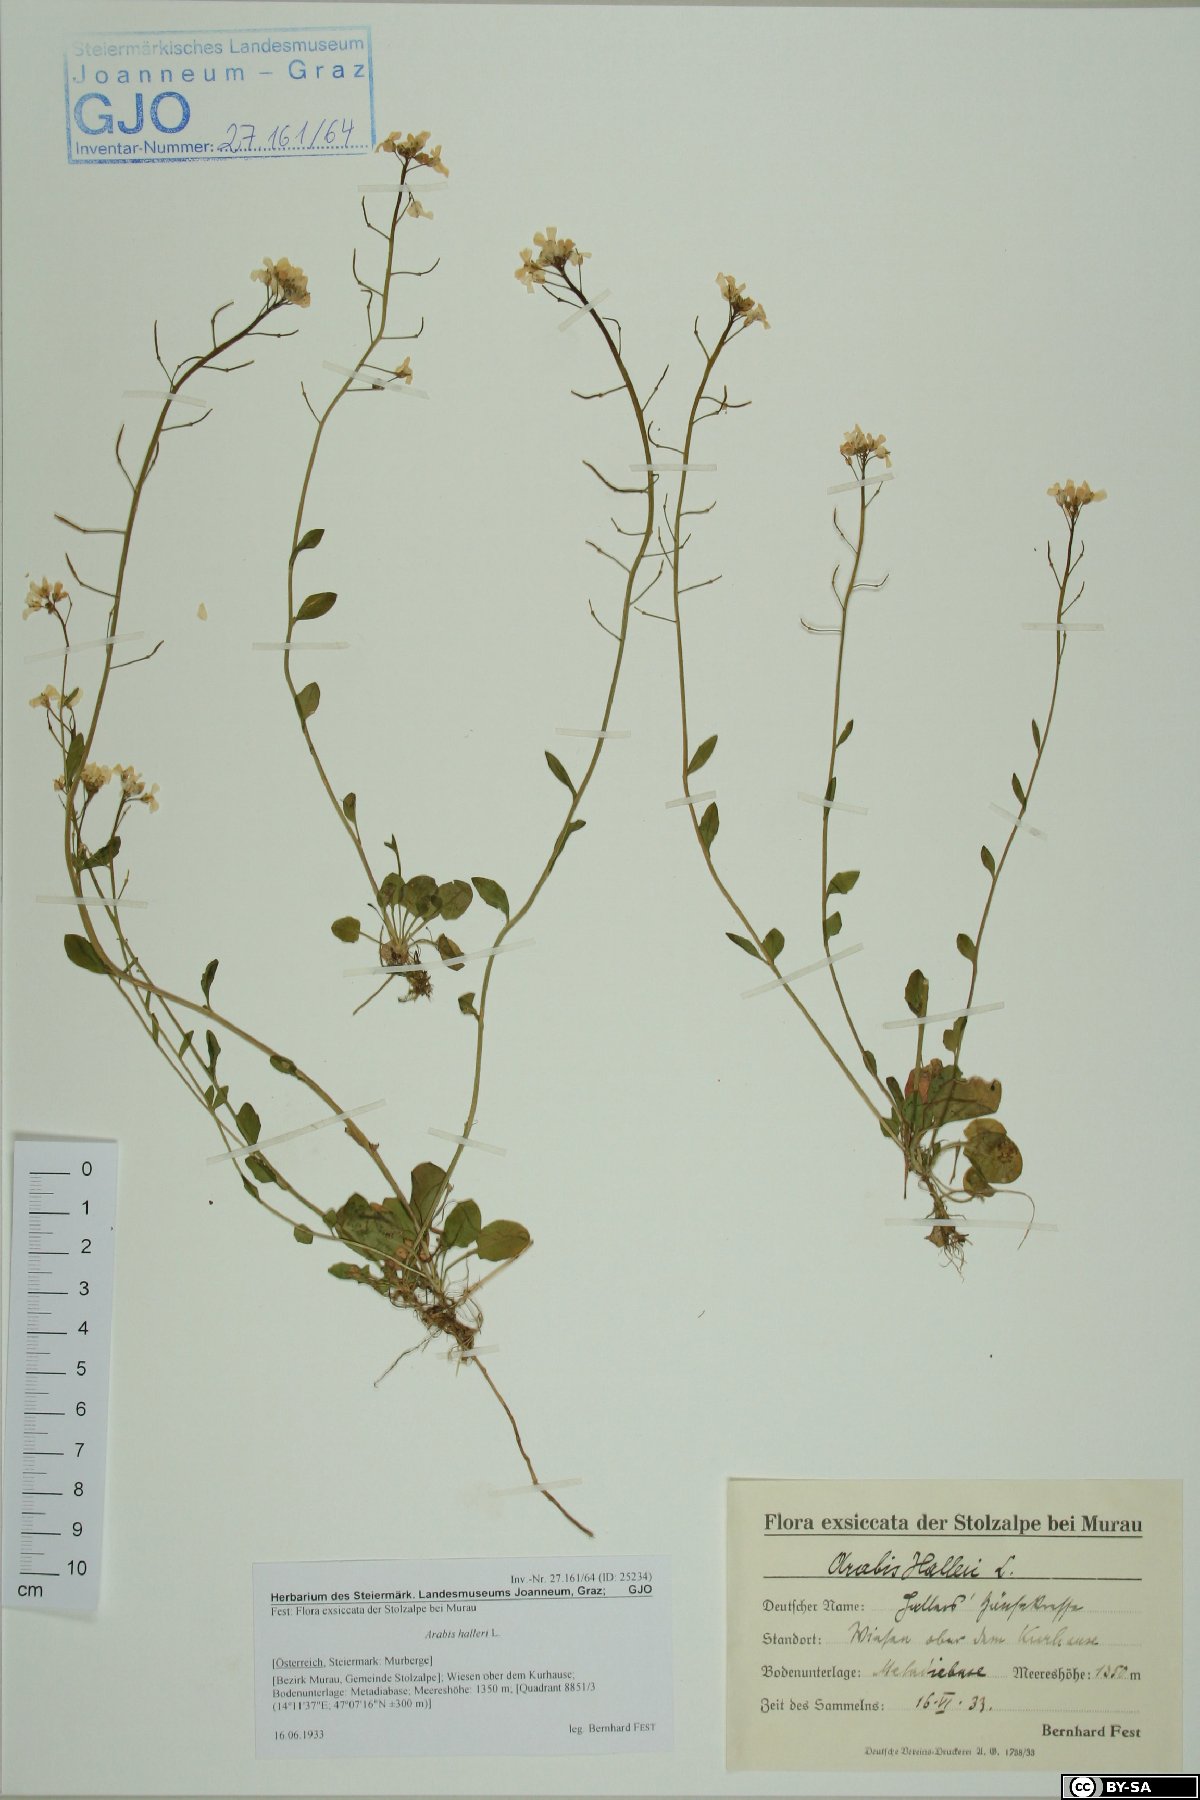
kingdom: Plantae
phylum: Tracheophyta
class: Magnoliopsida
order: Brassicales
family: Brassicaceae
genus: Arabidopsis
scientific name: Arabidopsis halleri
